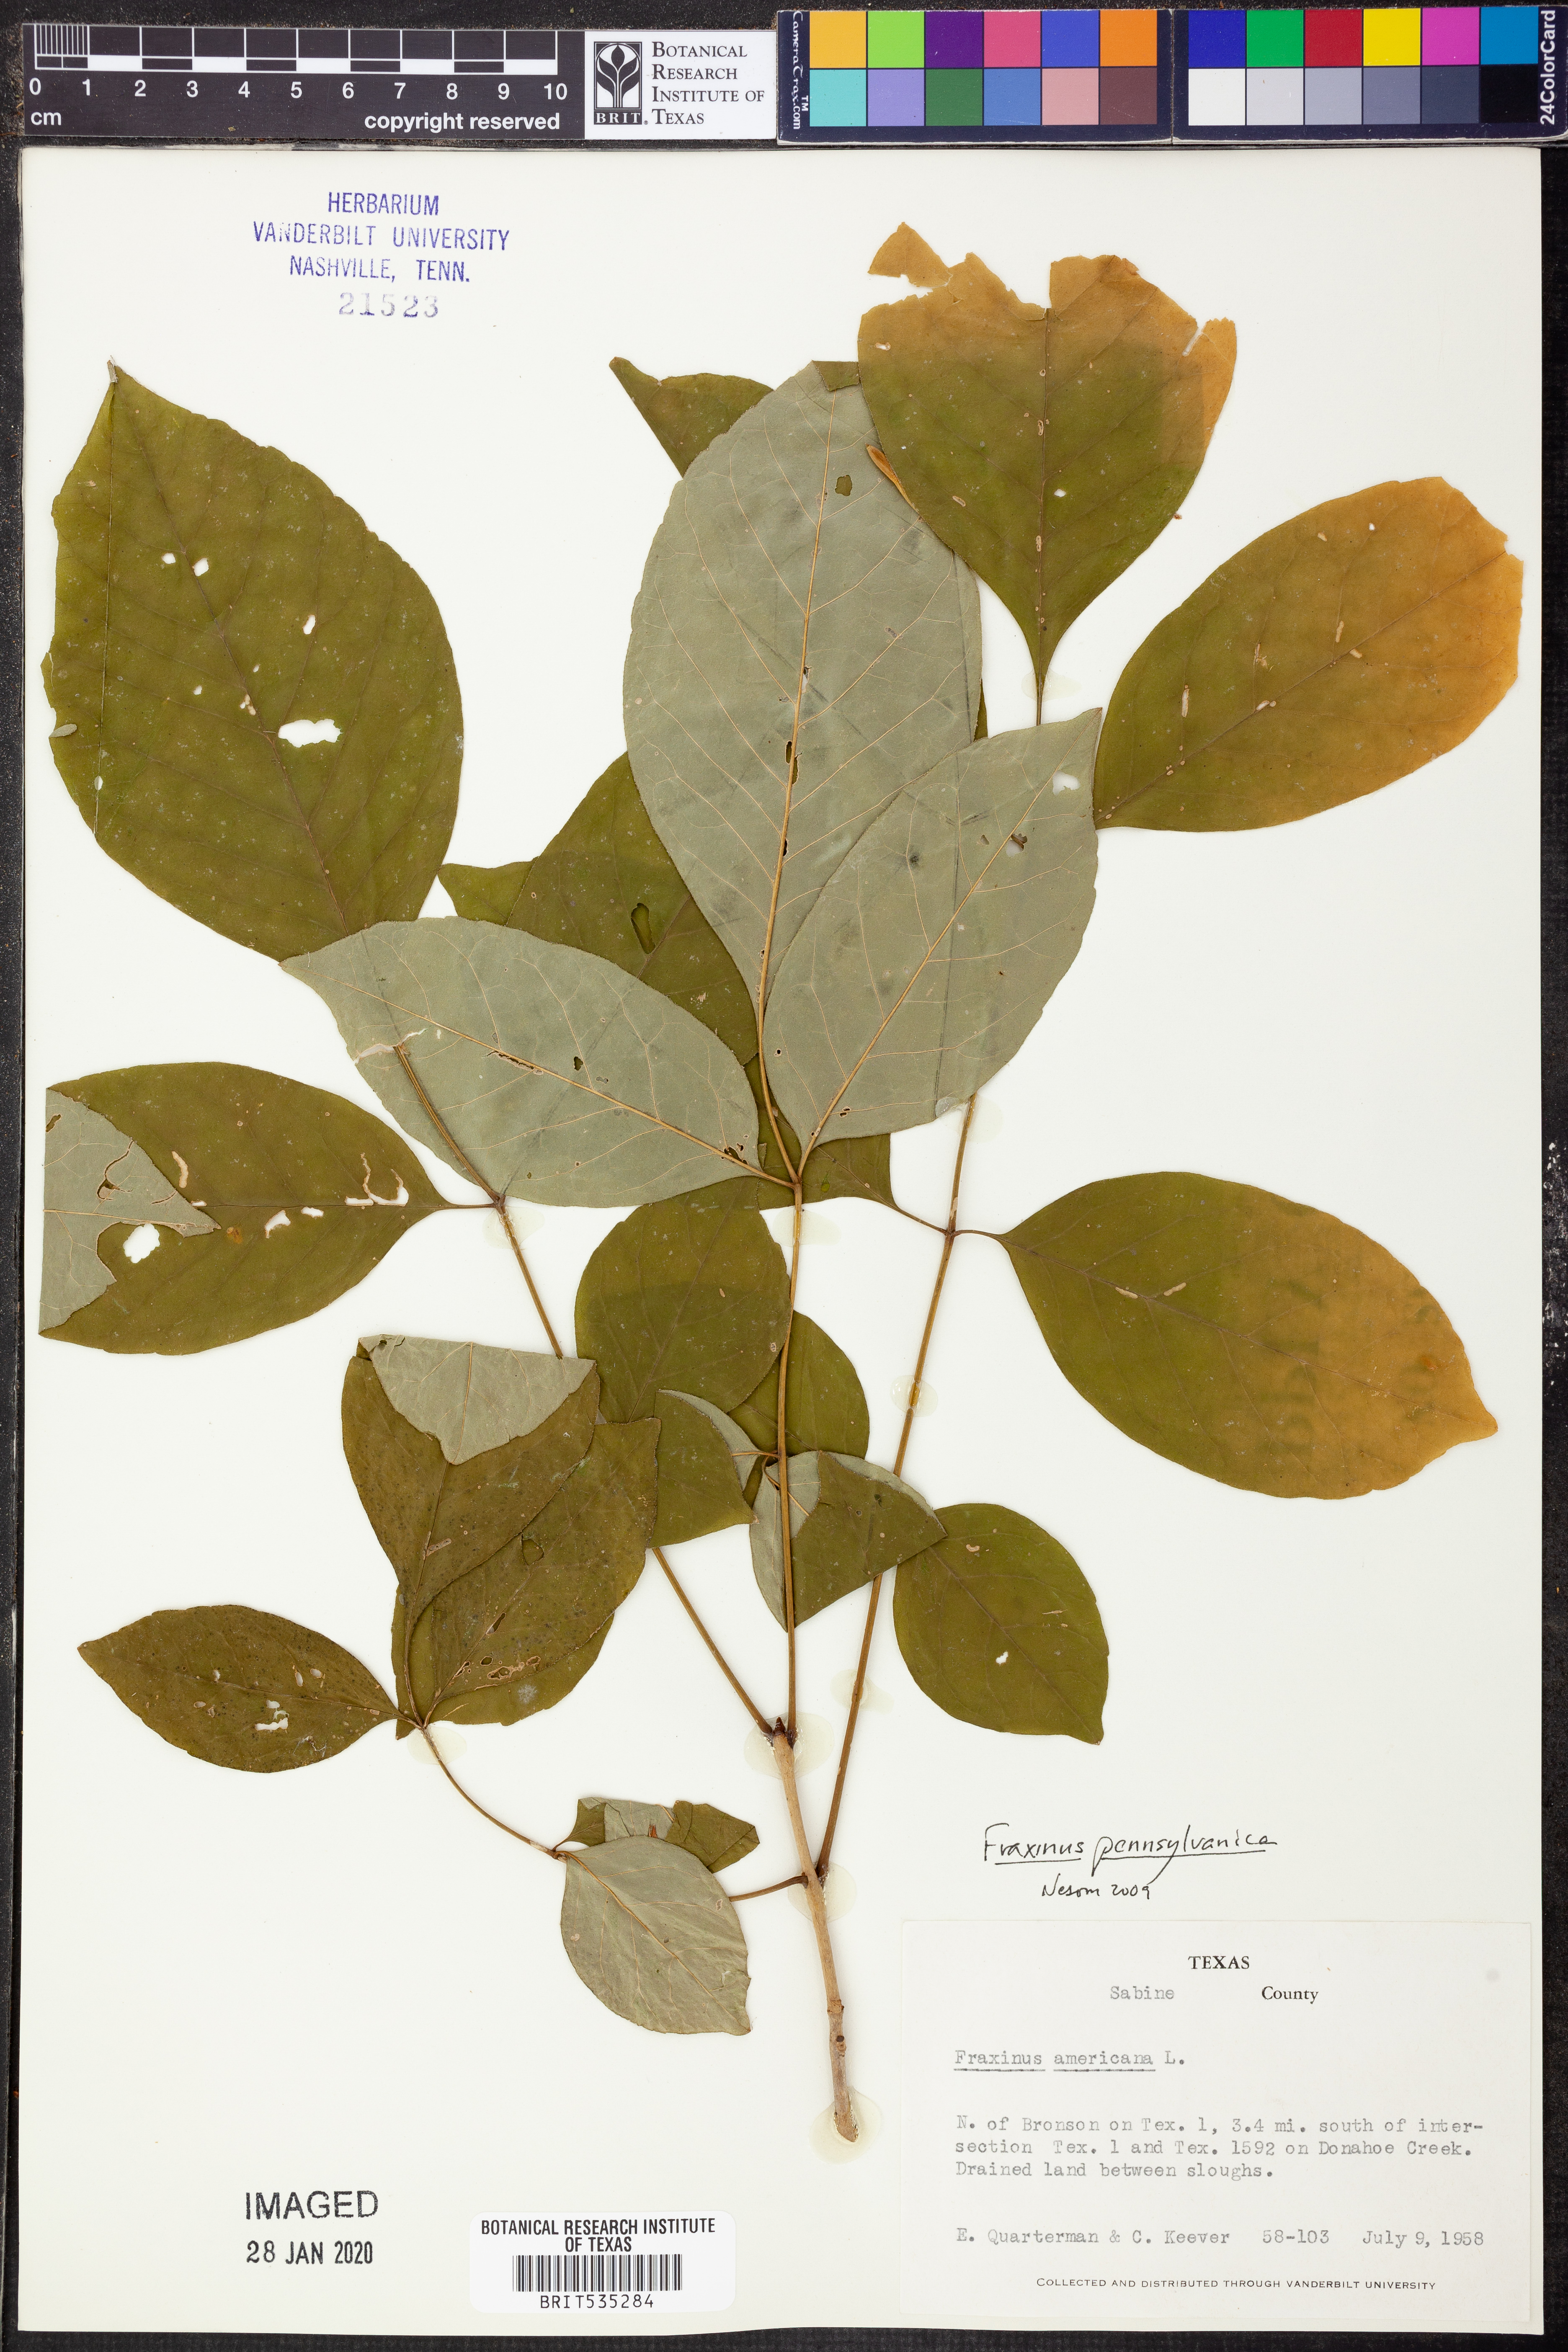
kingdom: Plantae
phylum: Tracheophyta
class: Magnoliopsida
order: Lamiales
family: Oleaceae
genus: Fraxinus
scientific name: Fraxinus pennsylvanica
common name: Green ash
